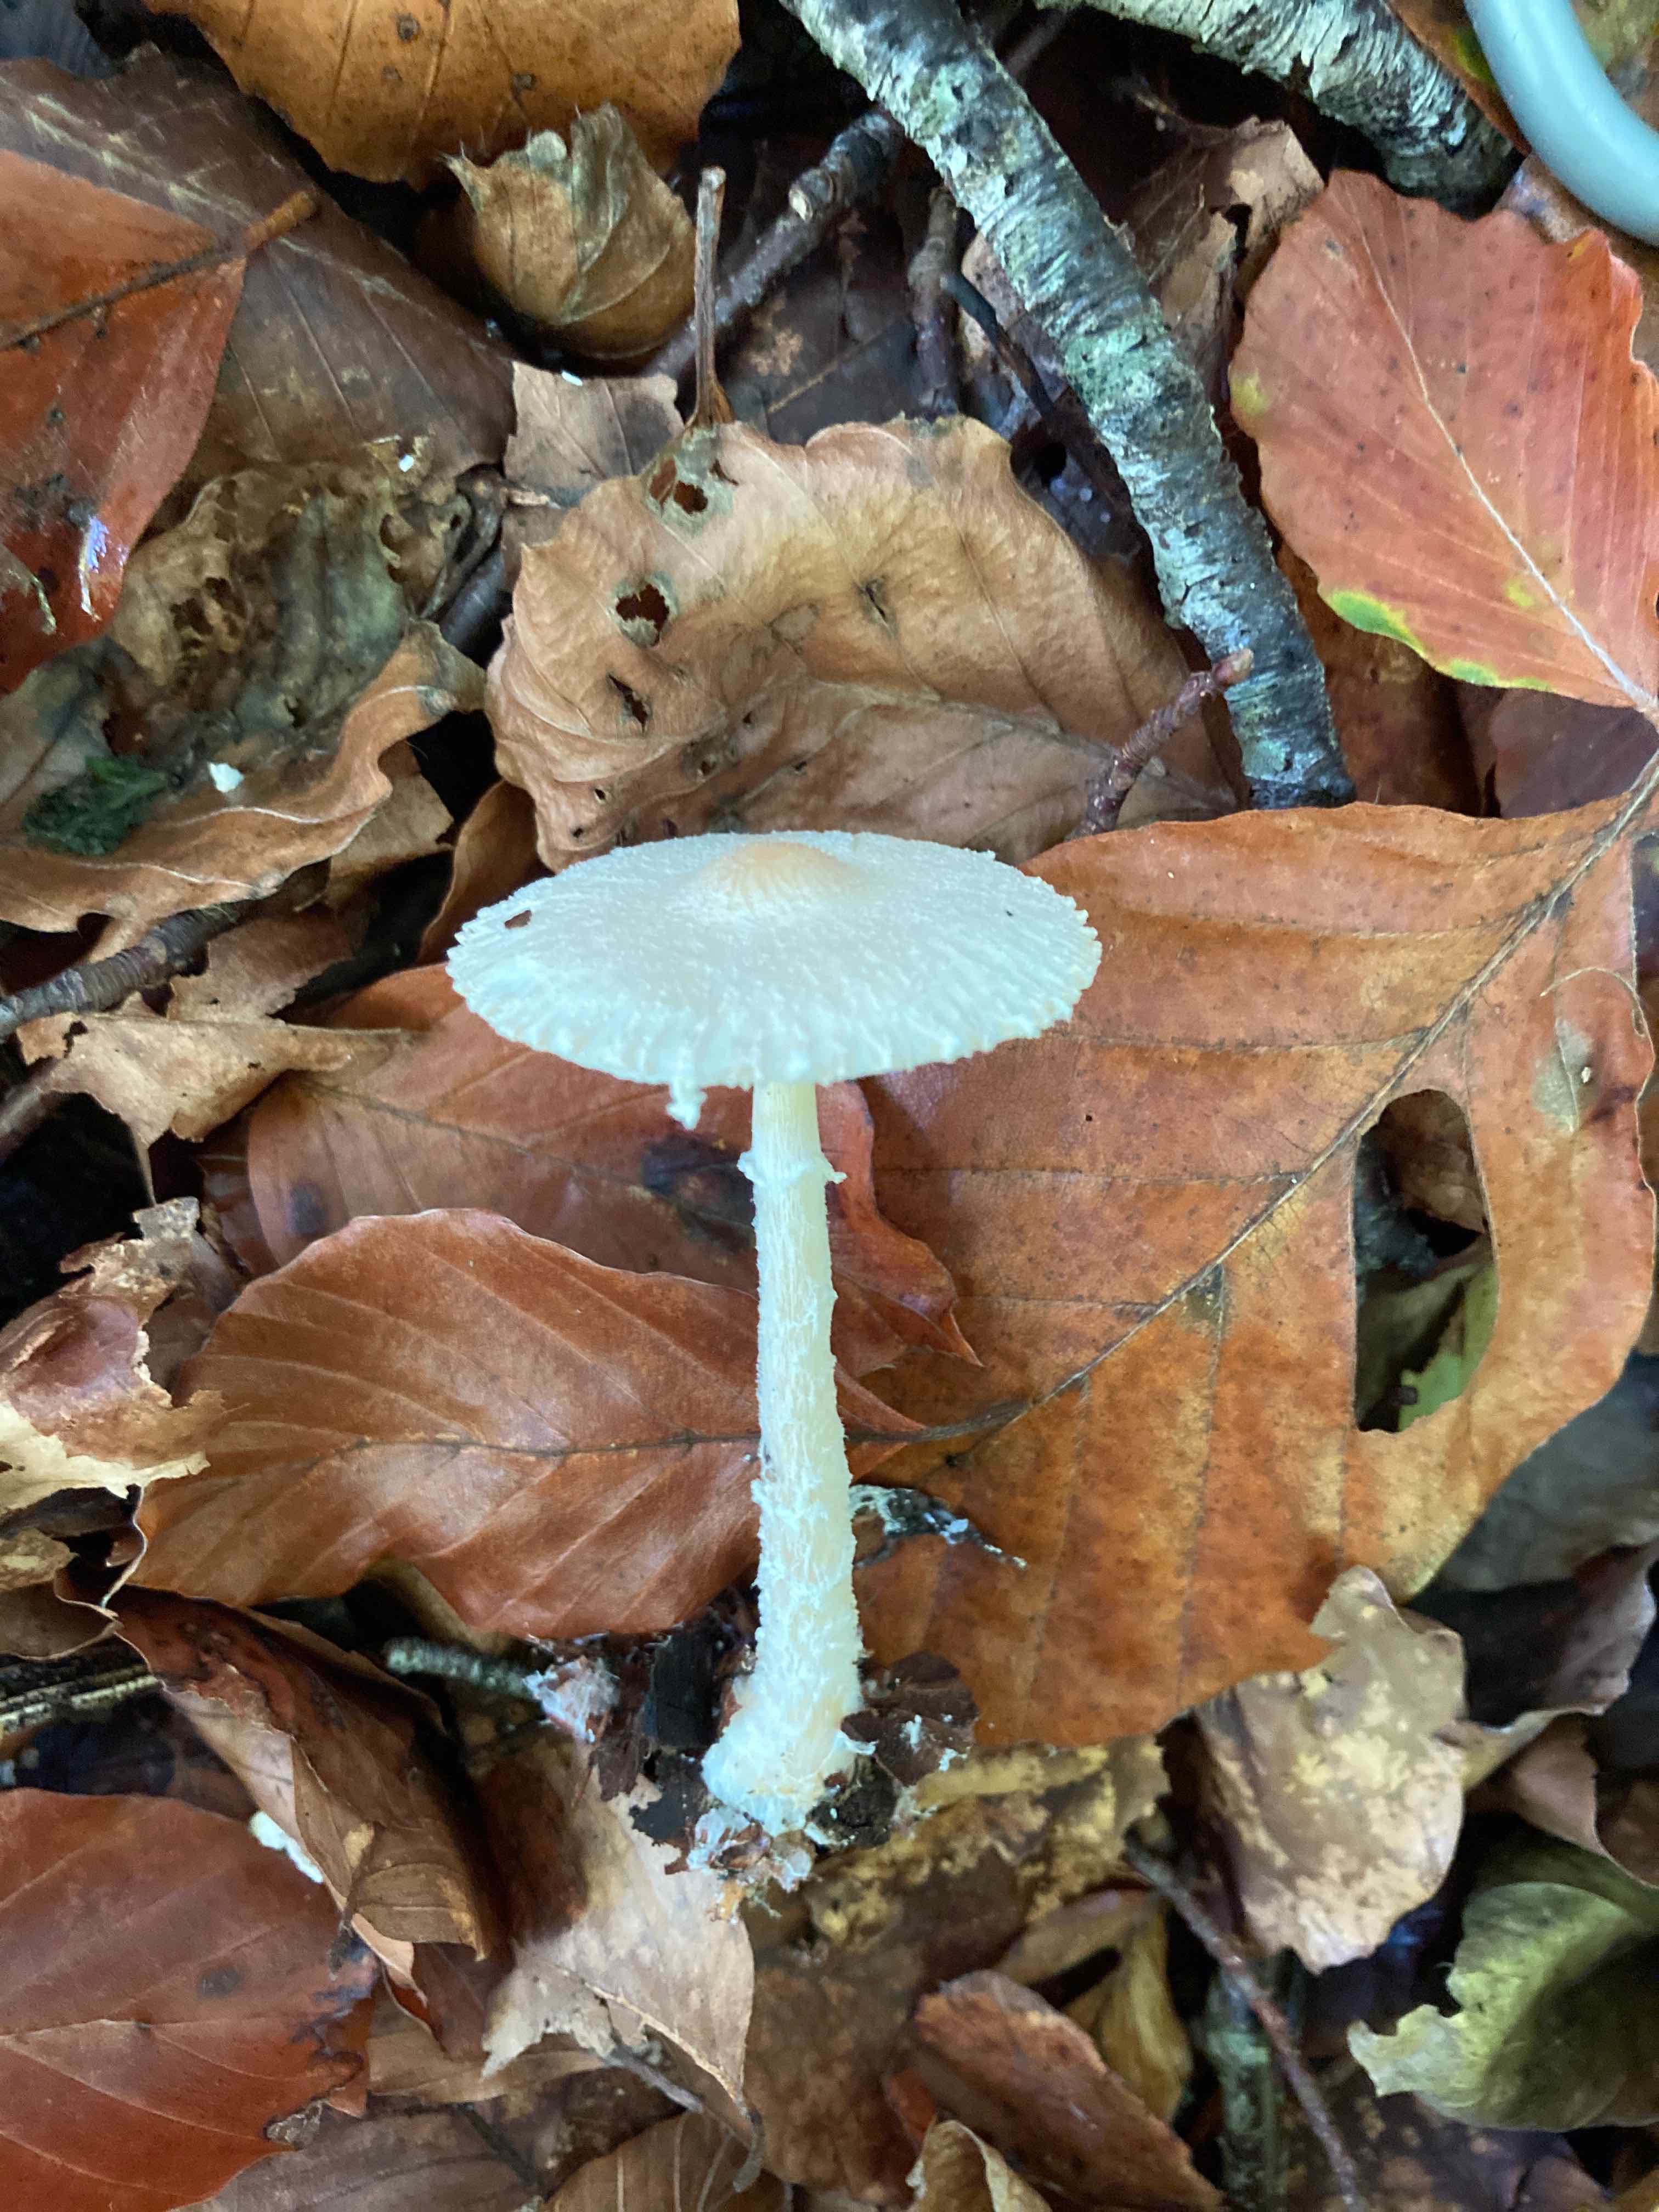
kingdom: Fungi
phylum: Basidiomycota
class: Agaricomycetes
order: Agaricales
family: Agaricaceae
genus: Lepiota
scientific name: Lepiota clypeolaria
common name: flosset parasolhat
